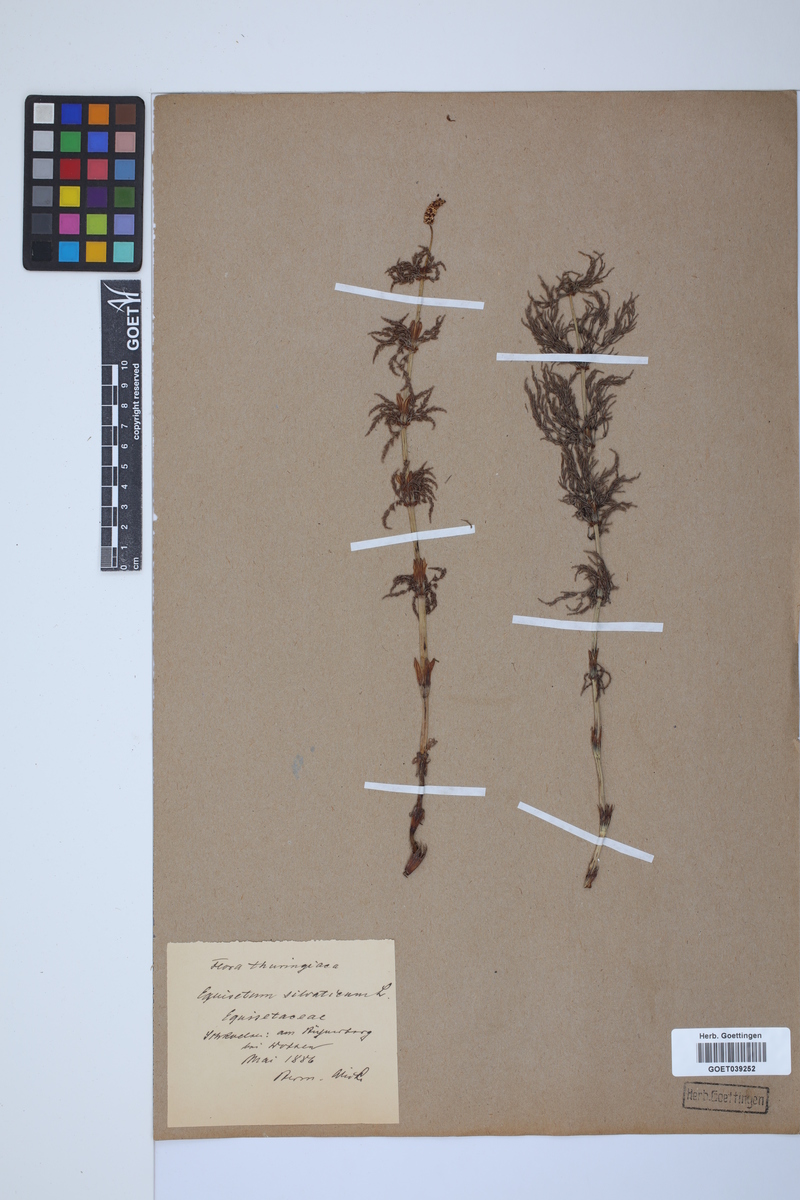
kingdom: Plantae
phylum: Tracheophyta
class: Polypodiopsida
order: Equisetales
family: Equisetaceae
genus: Equisetum
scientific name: Equisetum sylvaticum
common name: Wood horsetail
